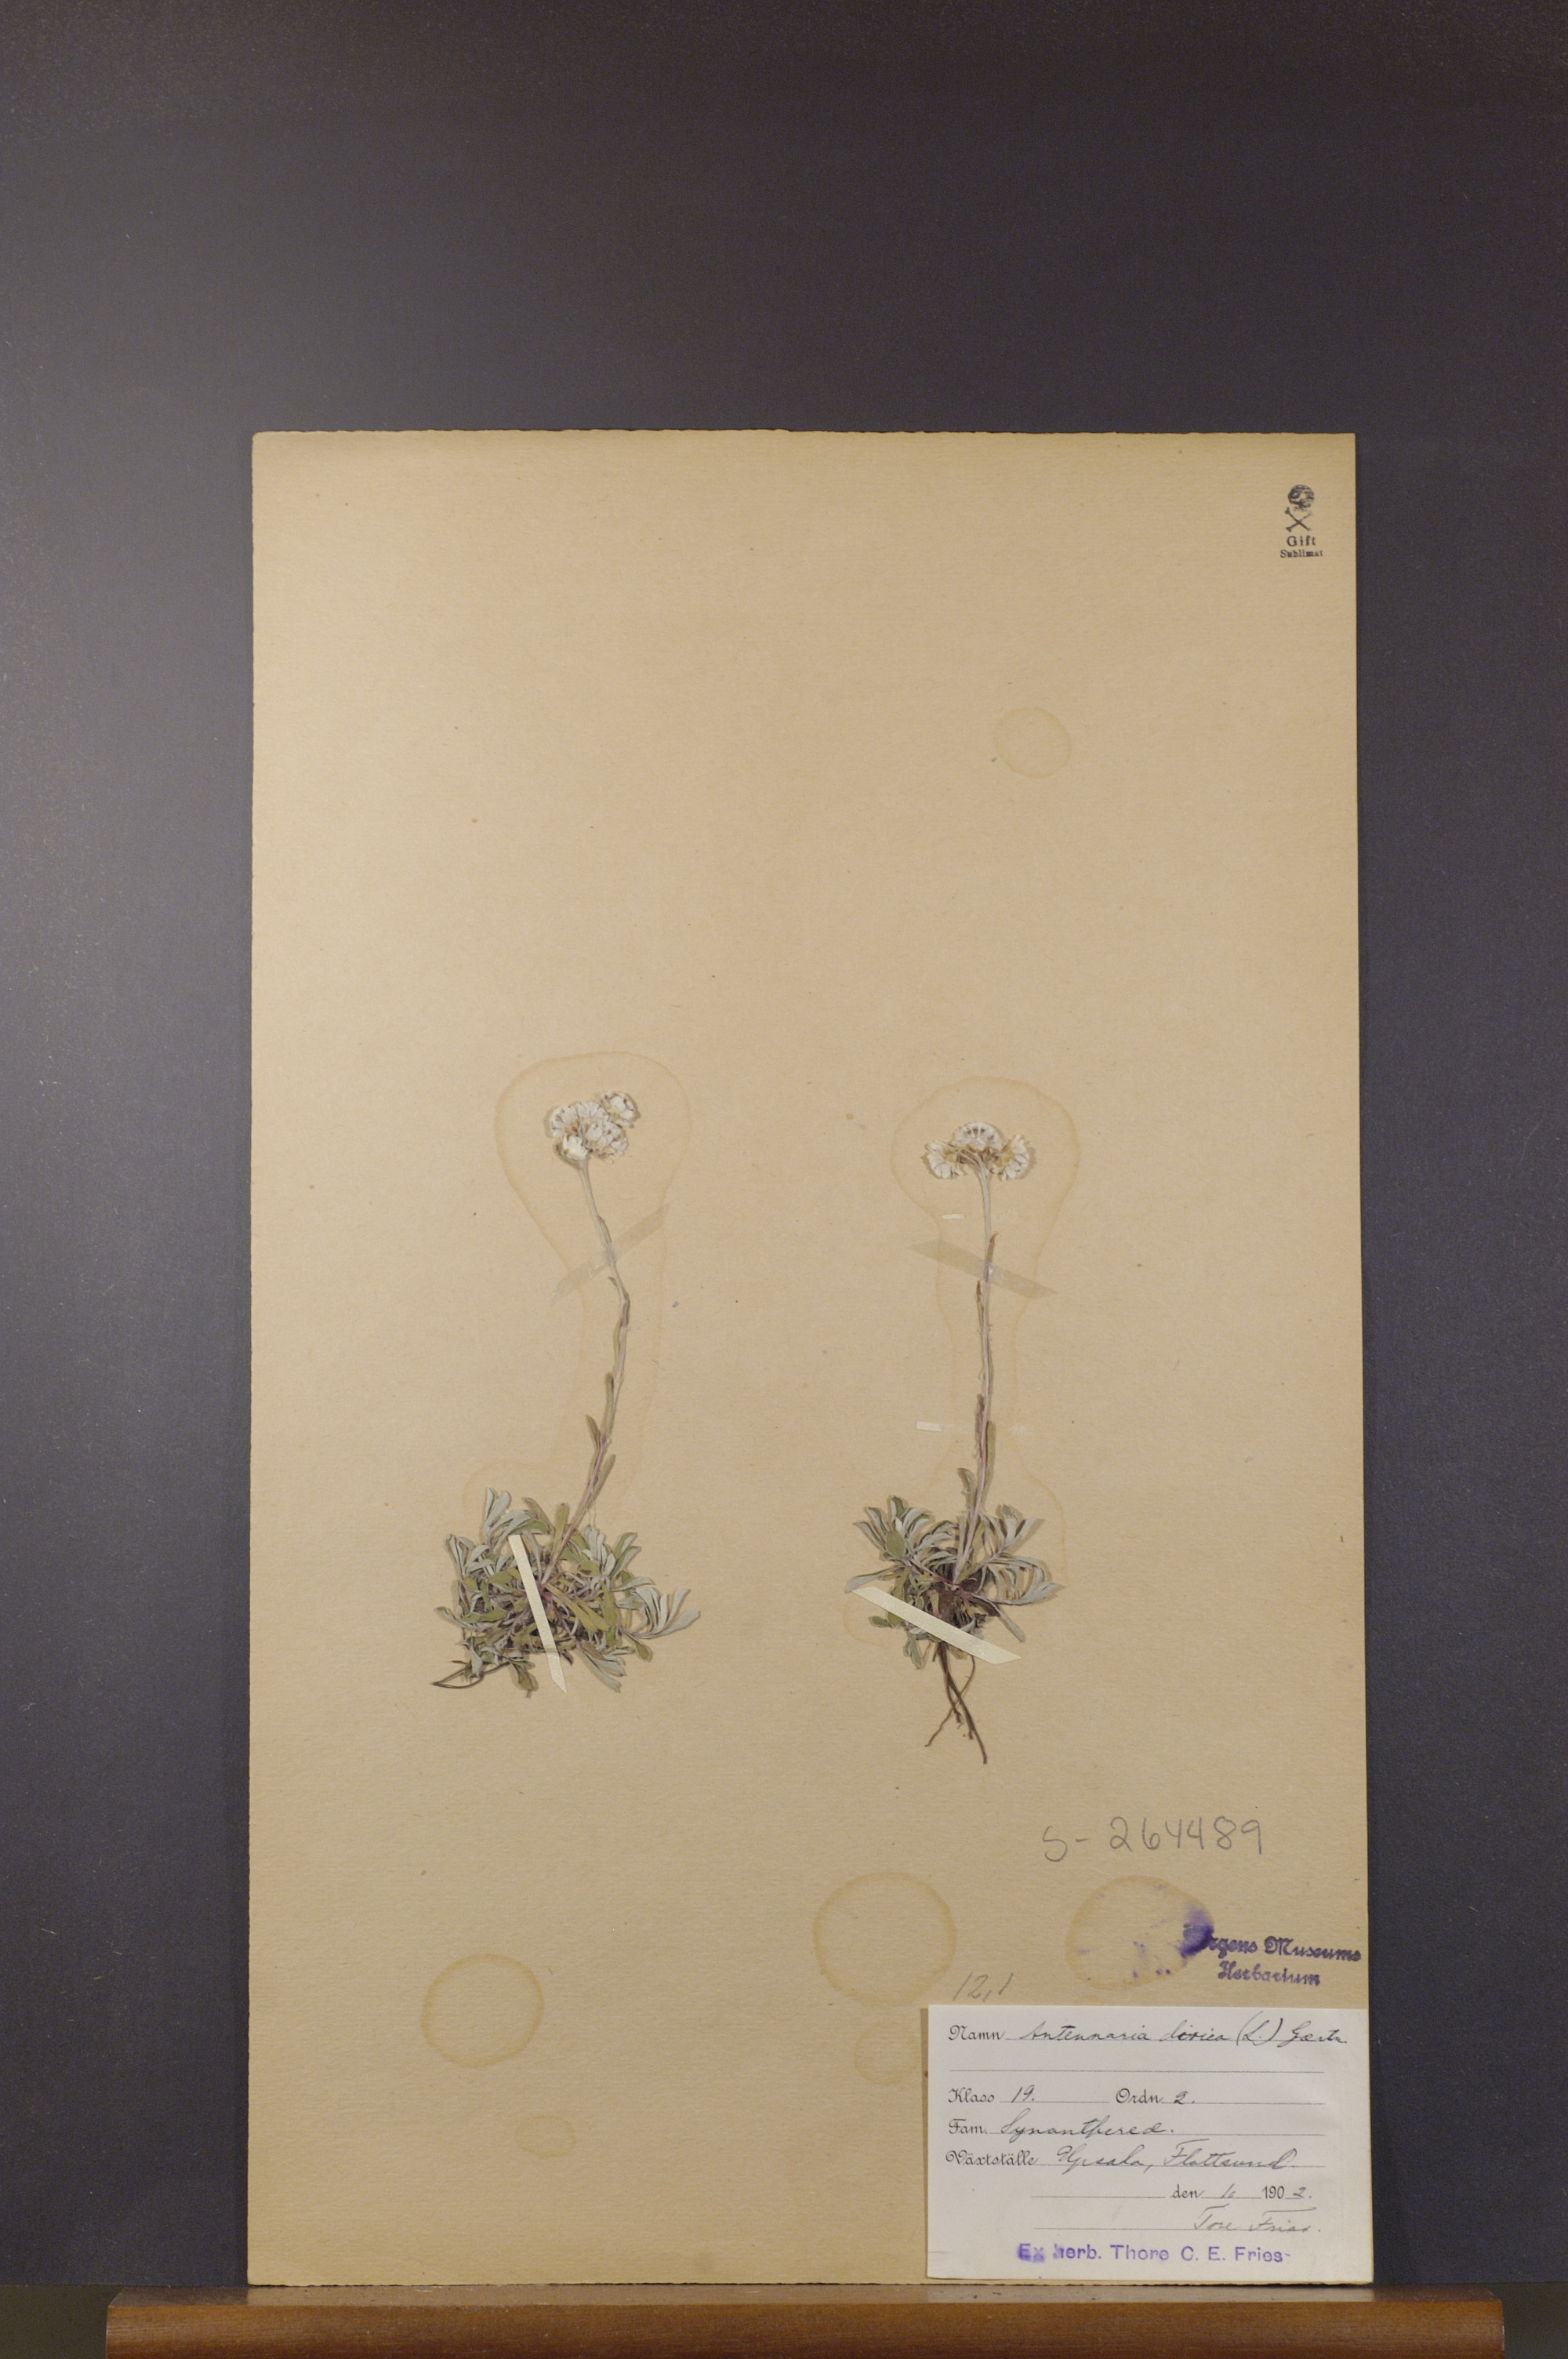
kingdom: Plantae
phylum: Tracheophyta
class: Magnoliopsida
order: Asterales
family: Asteraceae
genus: Antennaria
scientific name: Antennaria dioica
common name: Mountain everlasting
